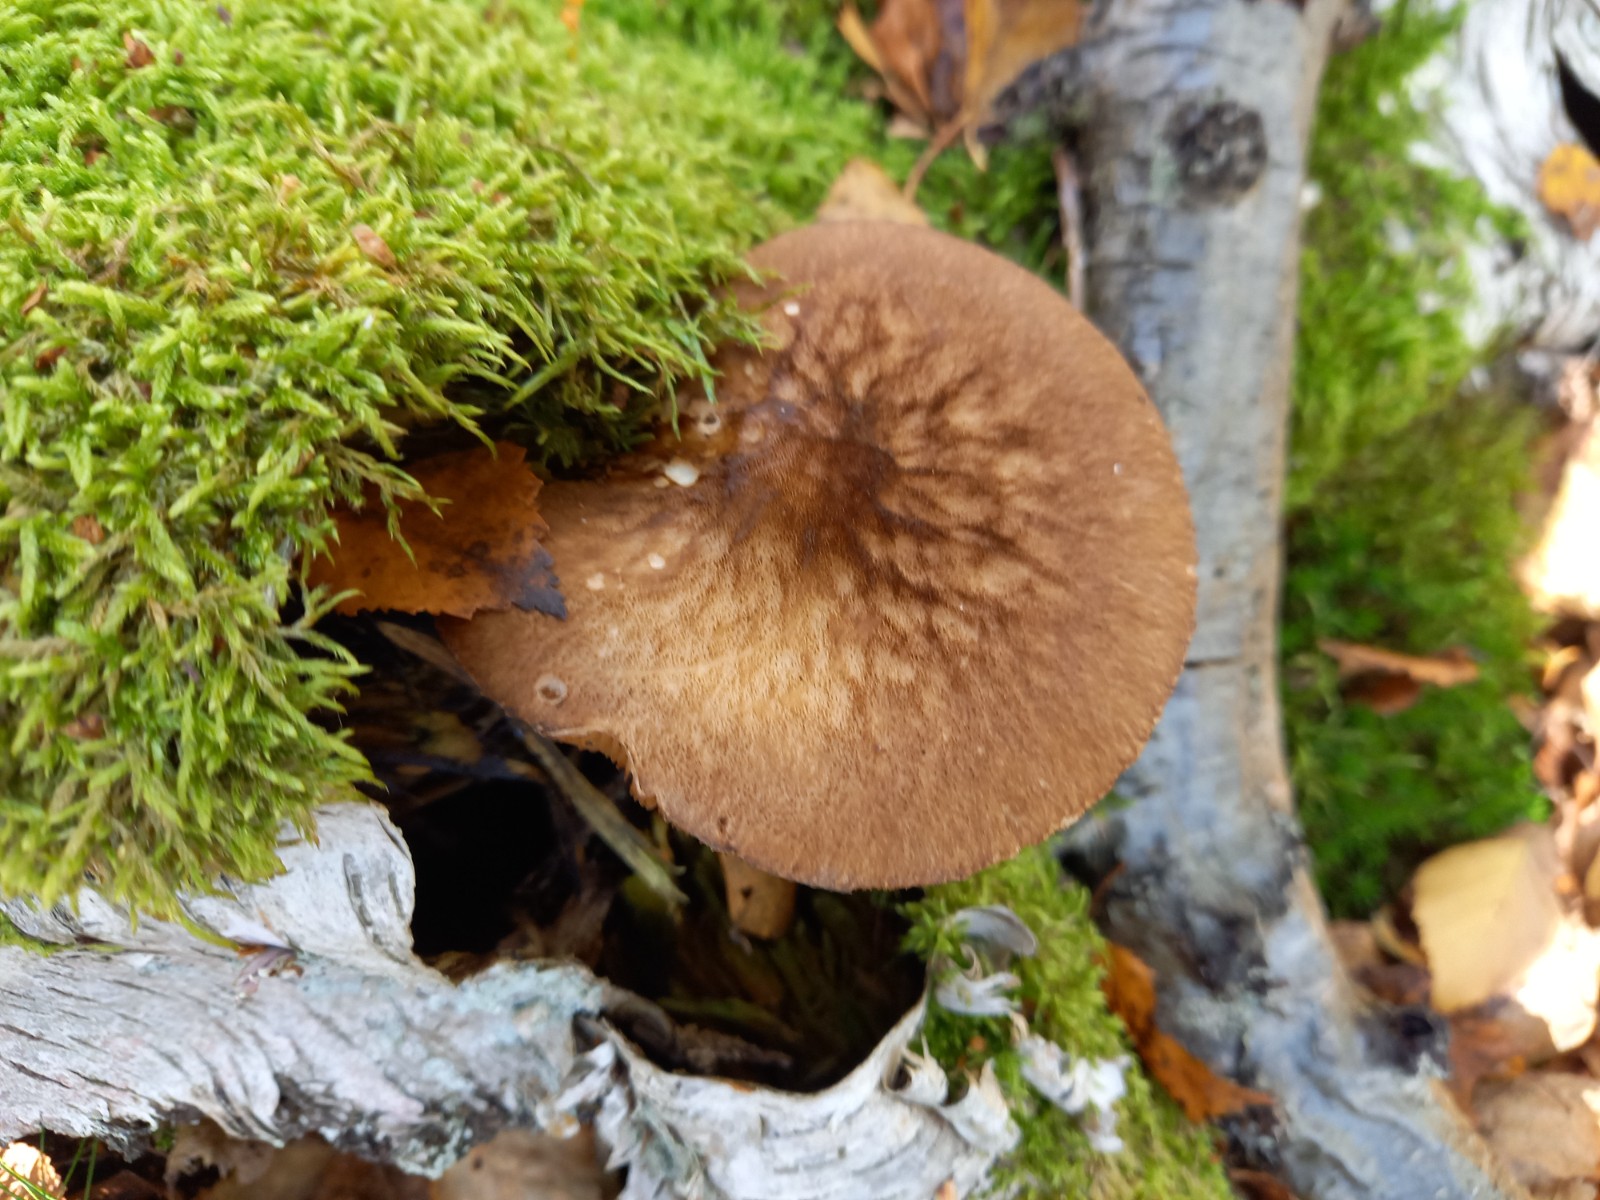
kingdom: Fungi
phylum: Basidiomycota
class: Agaricomycetes
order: Agaricales
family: Pluteaceae
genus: Pluteus
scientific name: Pluteus umbrosus
